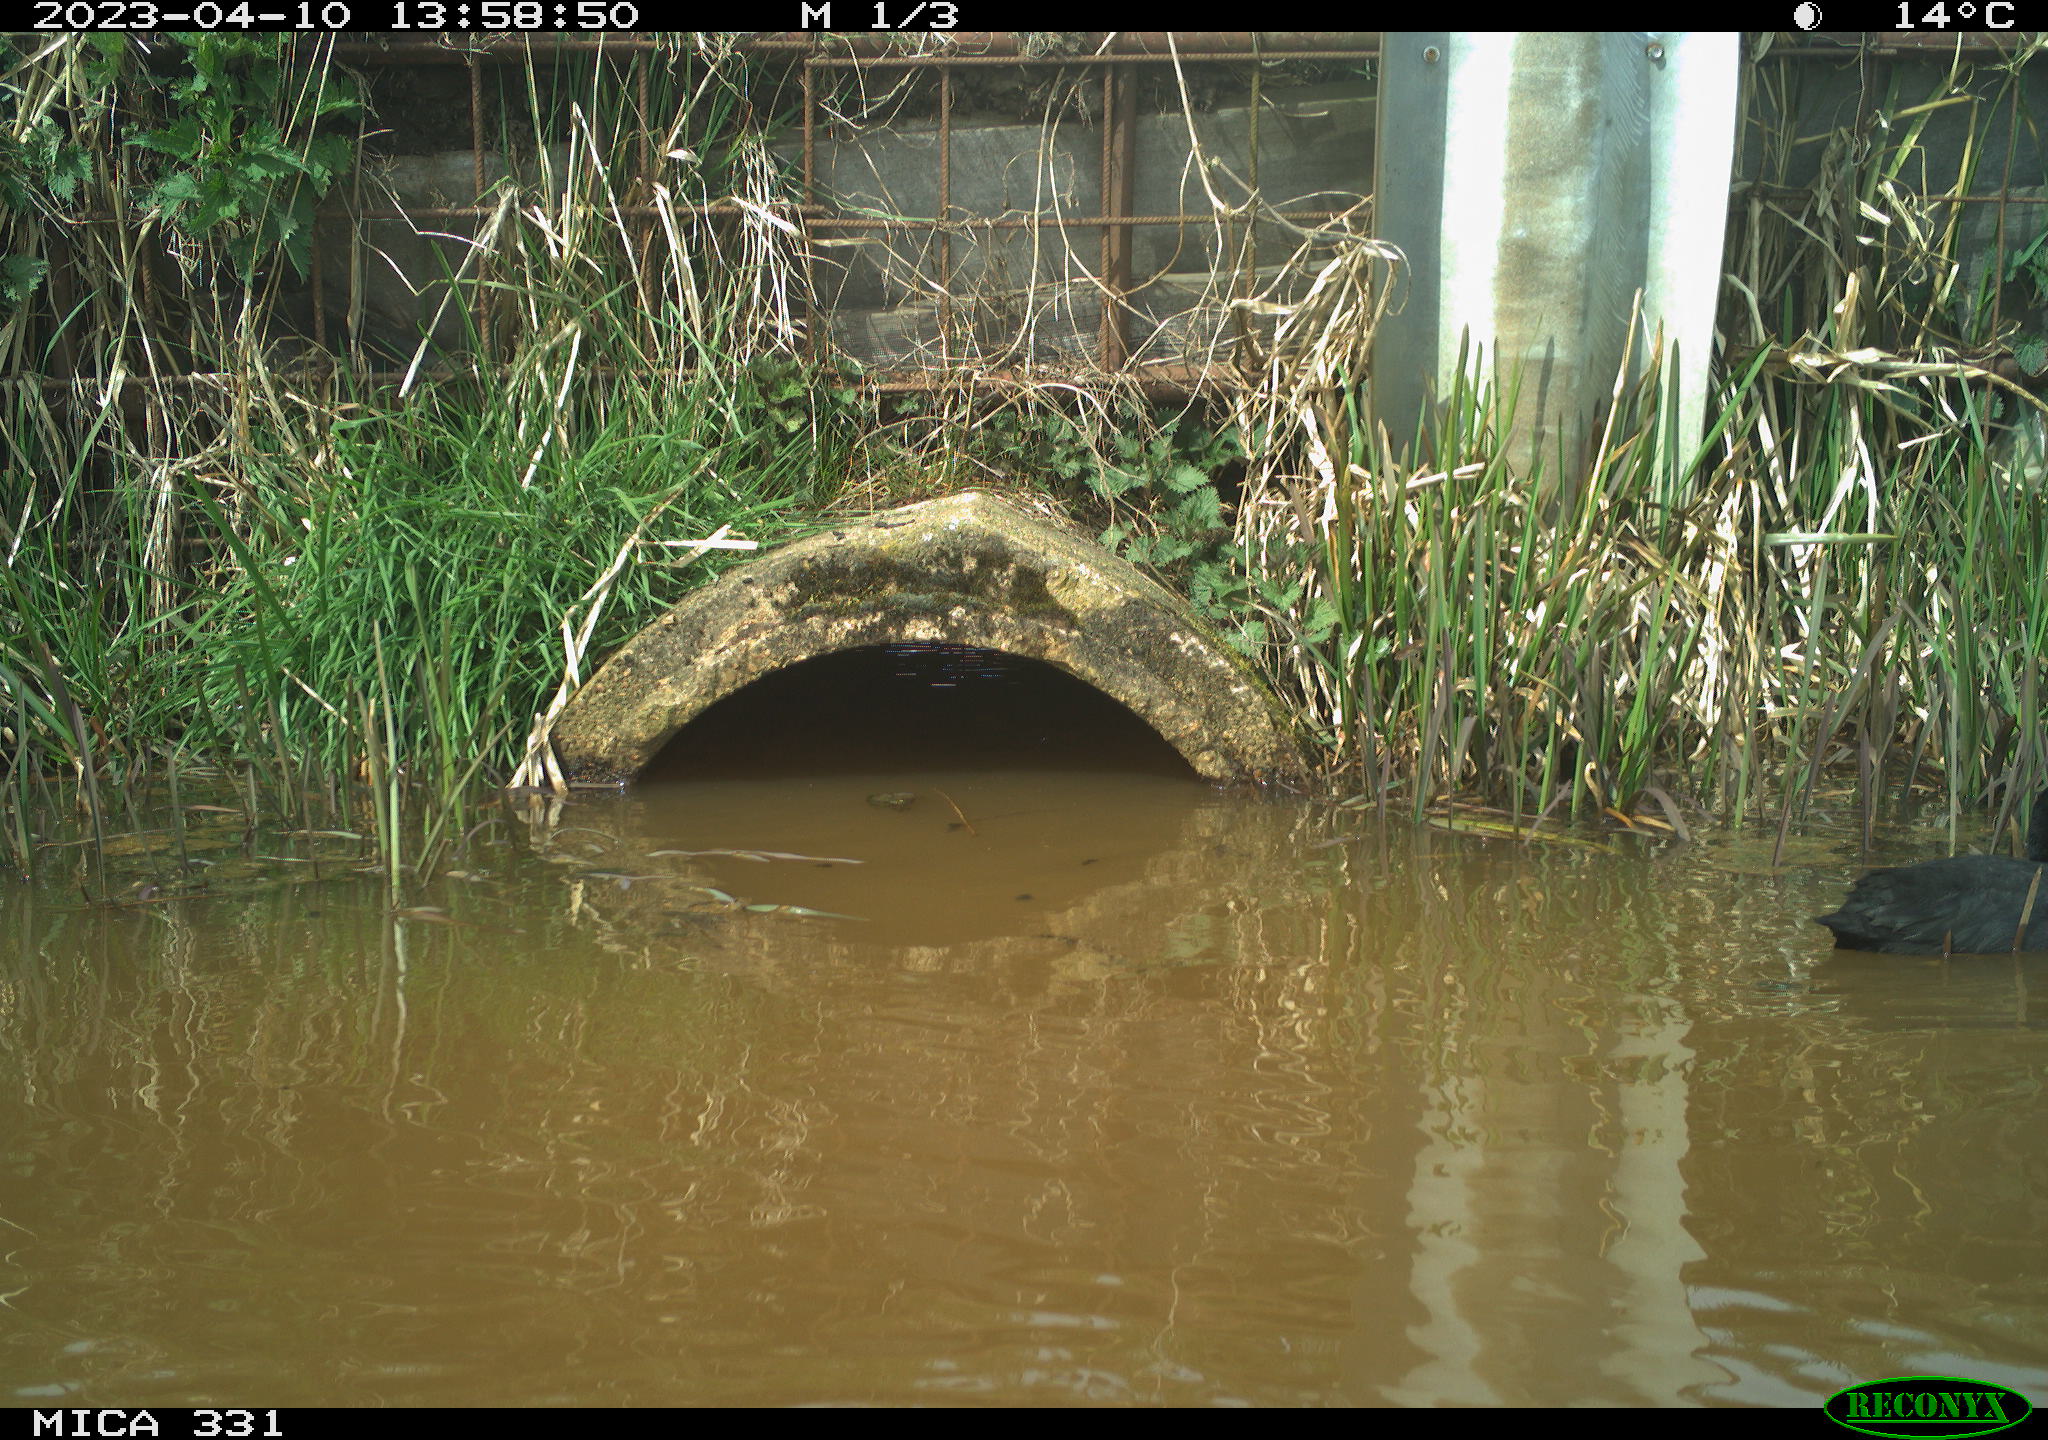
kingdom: Animalia
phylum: Chordata
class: Aves
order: Gruiformes
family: Rallidae
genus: Fulica
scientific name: Fulica atra
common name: Eurasian coot
